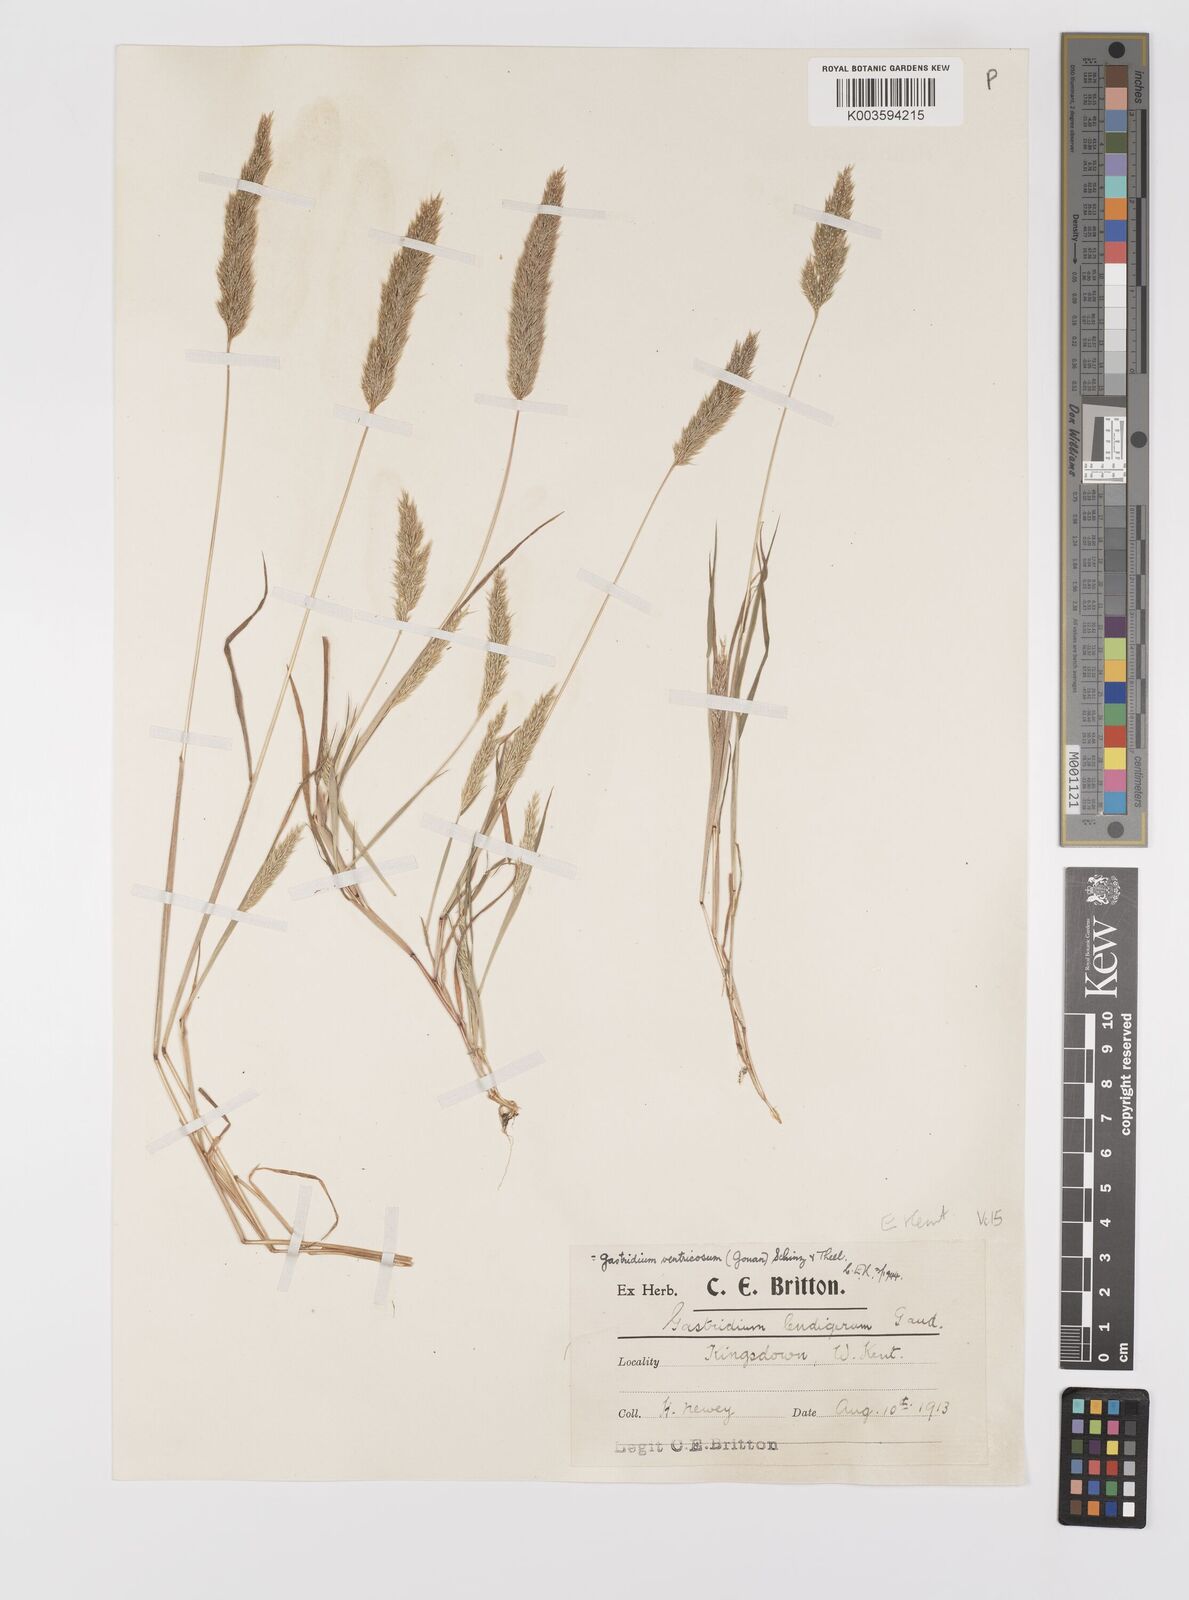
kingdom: Plantae
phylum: Tracheophyta
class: Liliopsida
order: Poales
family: Poaceae
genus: Gastridium
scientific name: Gastridium ventricosum
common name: Nit-grass
